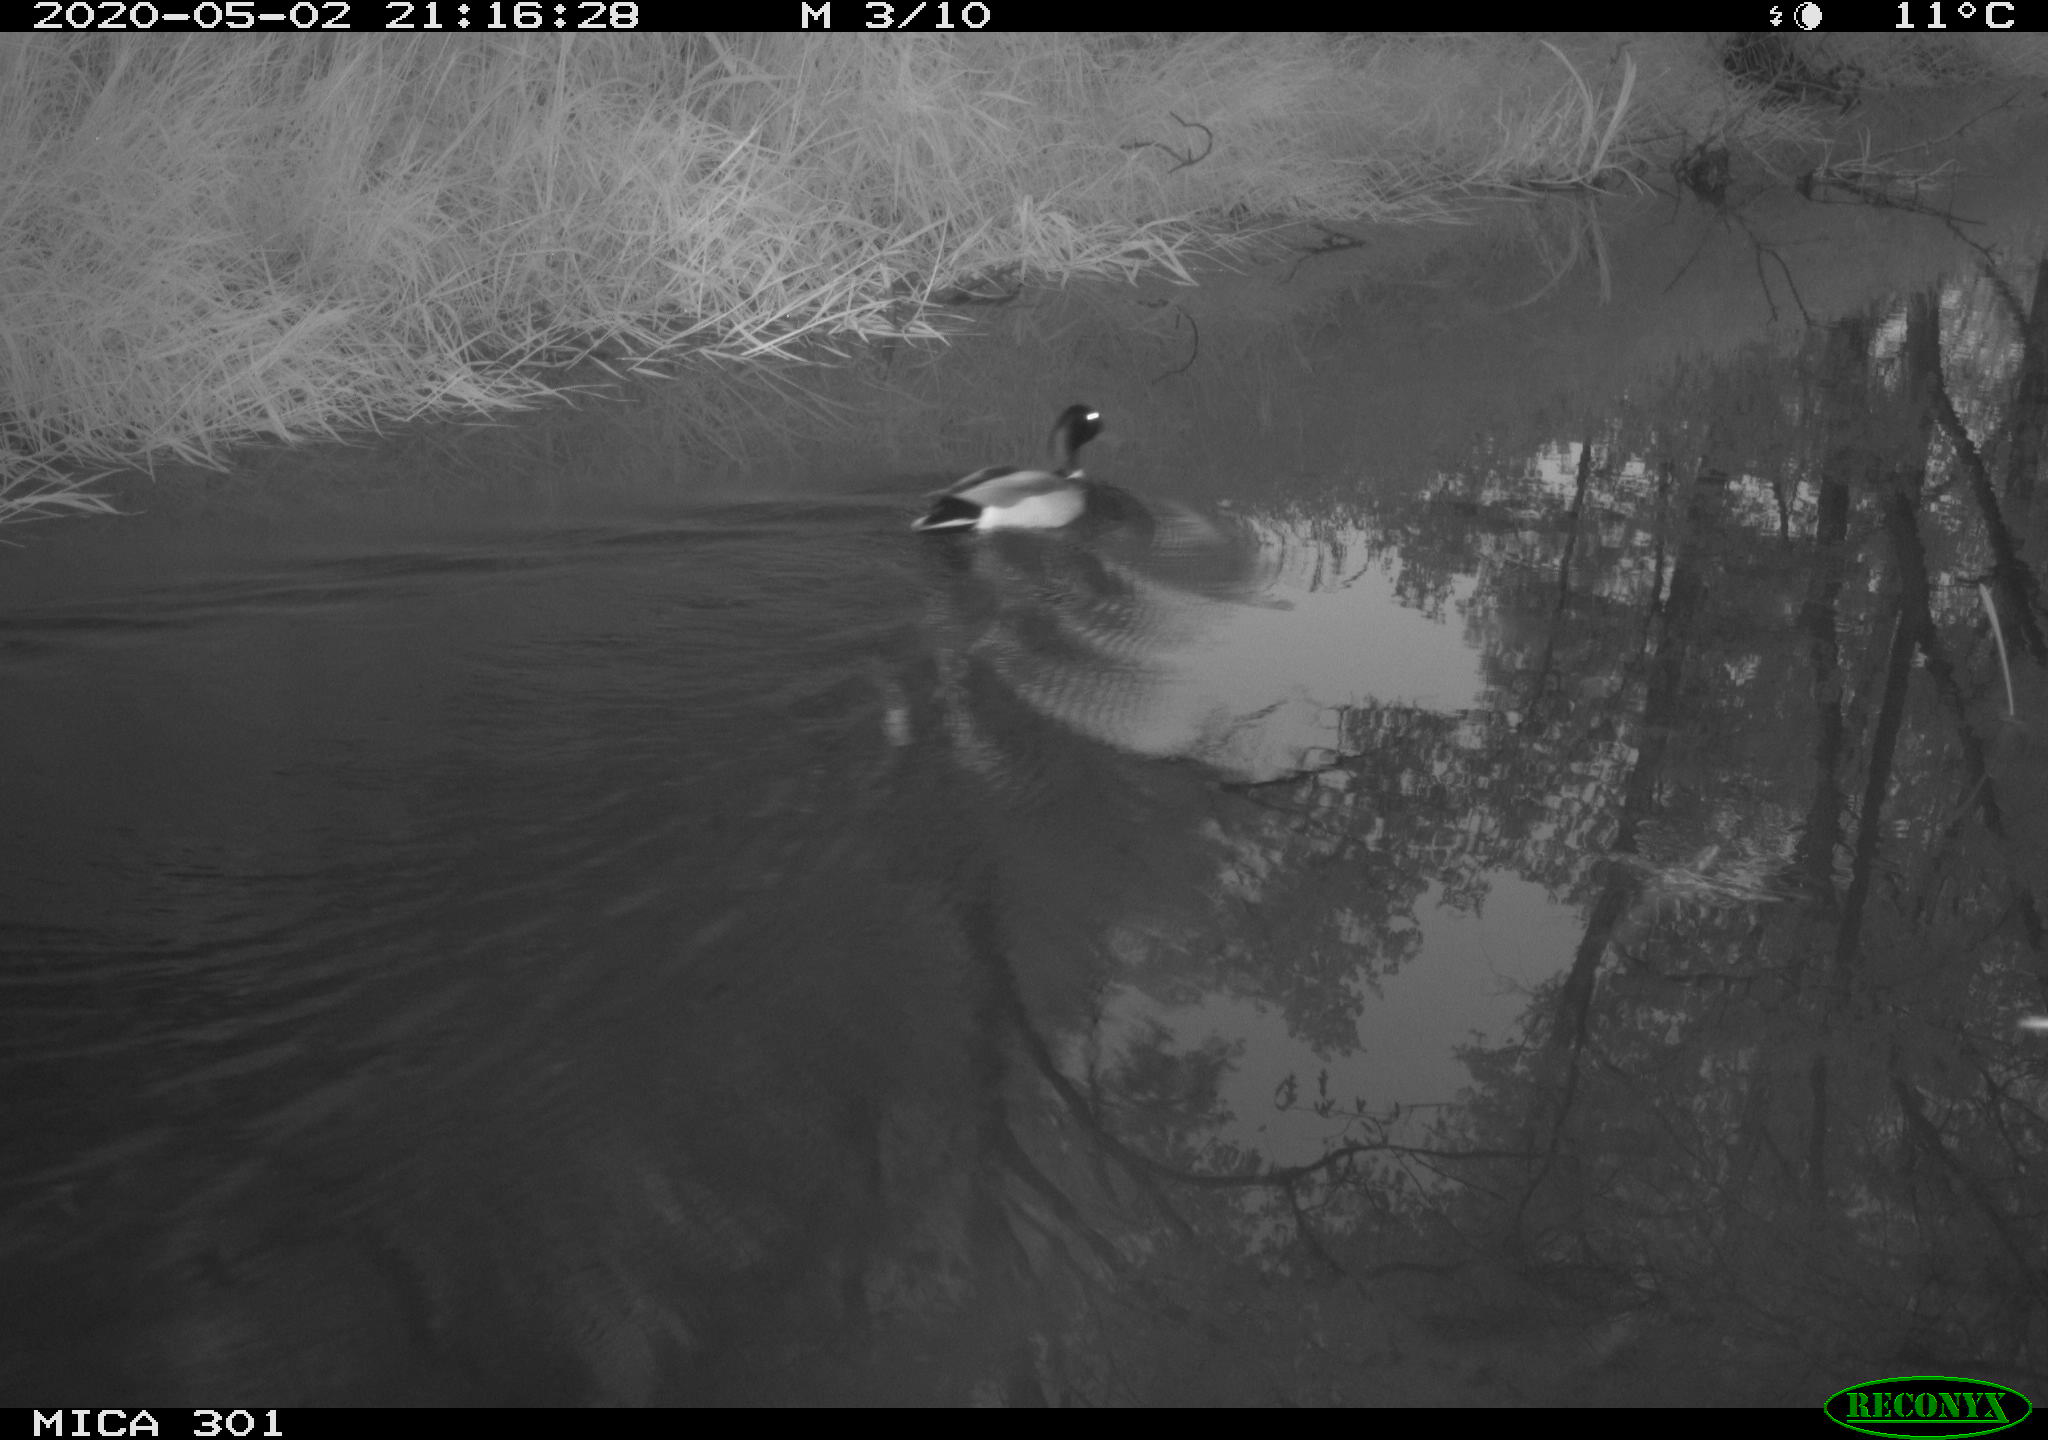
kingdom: Animalia
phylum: Chordata
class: Aves
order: Anseriformes
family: Anatidae
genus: Anas
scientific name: Anas platyrhynchos
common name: Mallard
